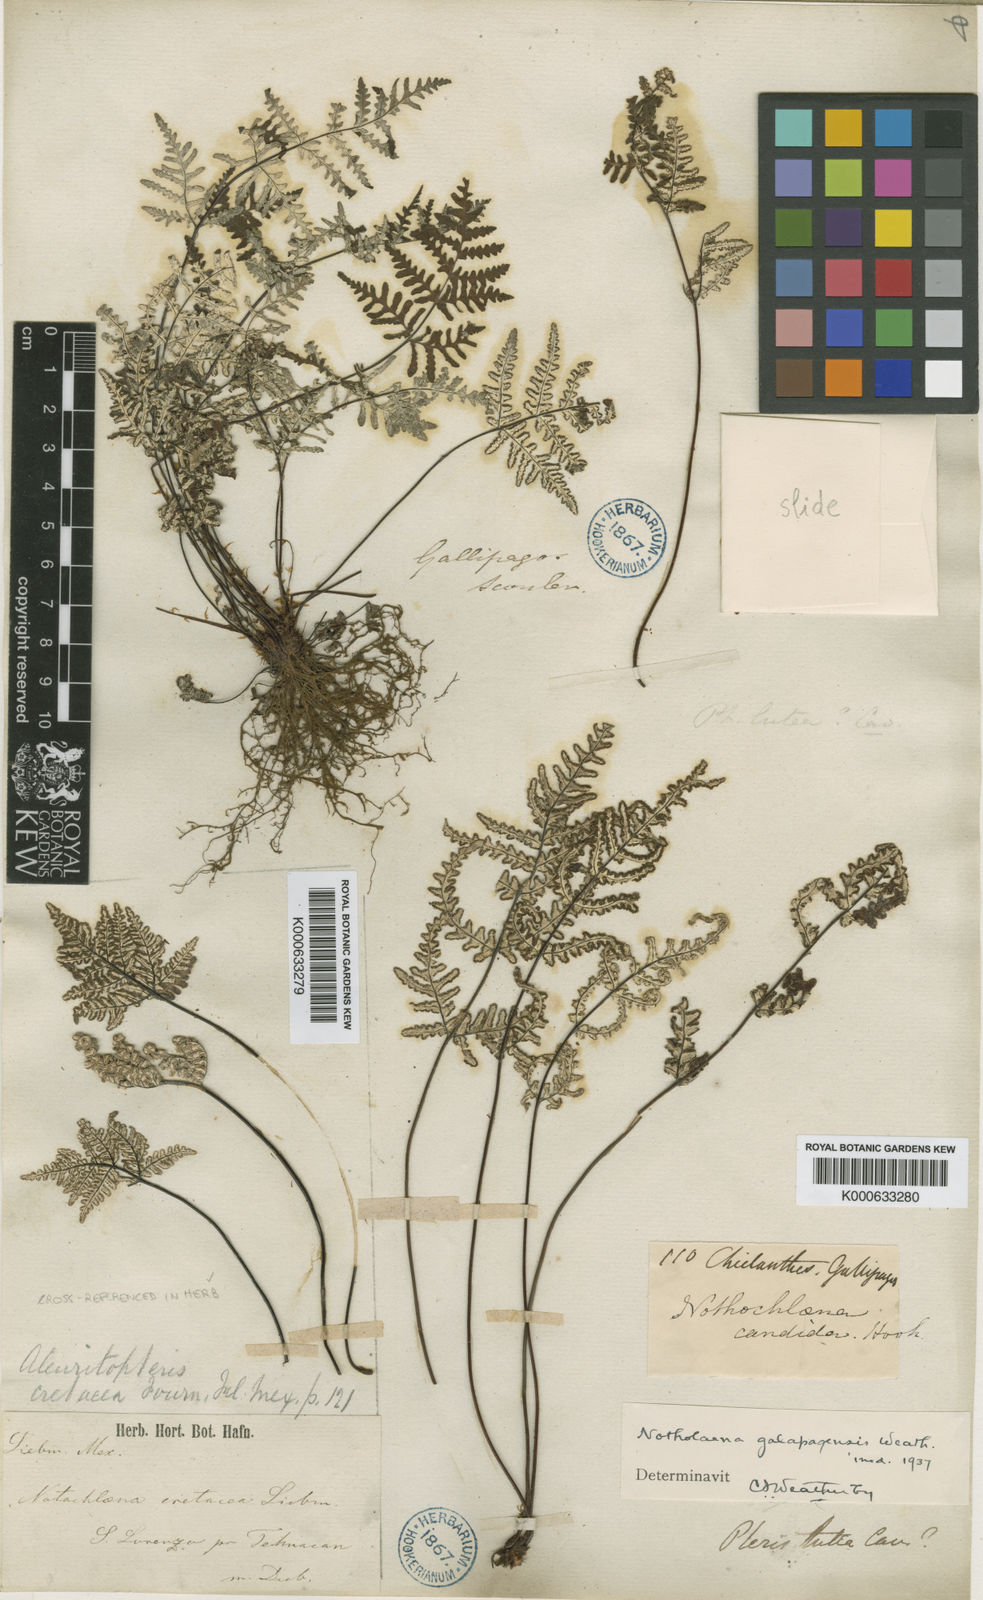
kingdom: Plantae
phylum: Tracheophyta
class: Polypodiopsida
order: Polypodiales
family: Pteridaceae
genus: Cheilanthes
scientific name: Cheilanthes
